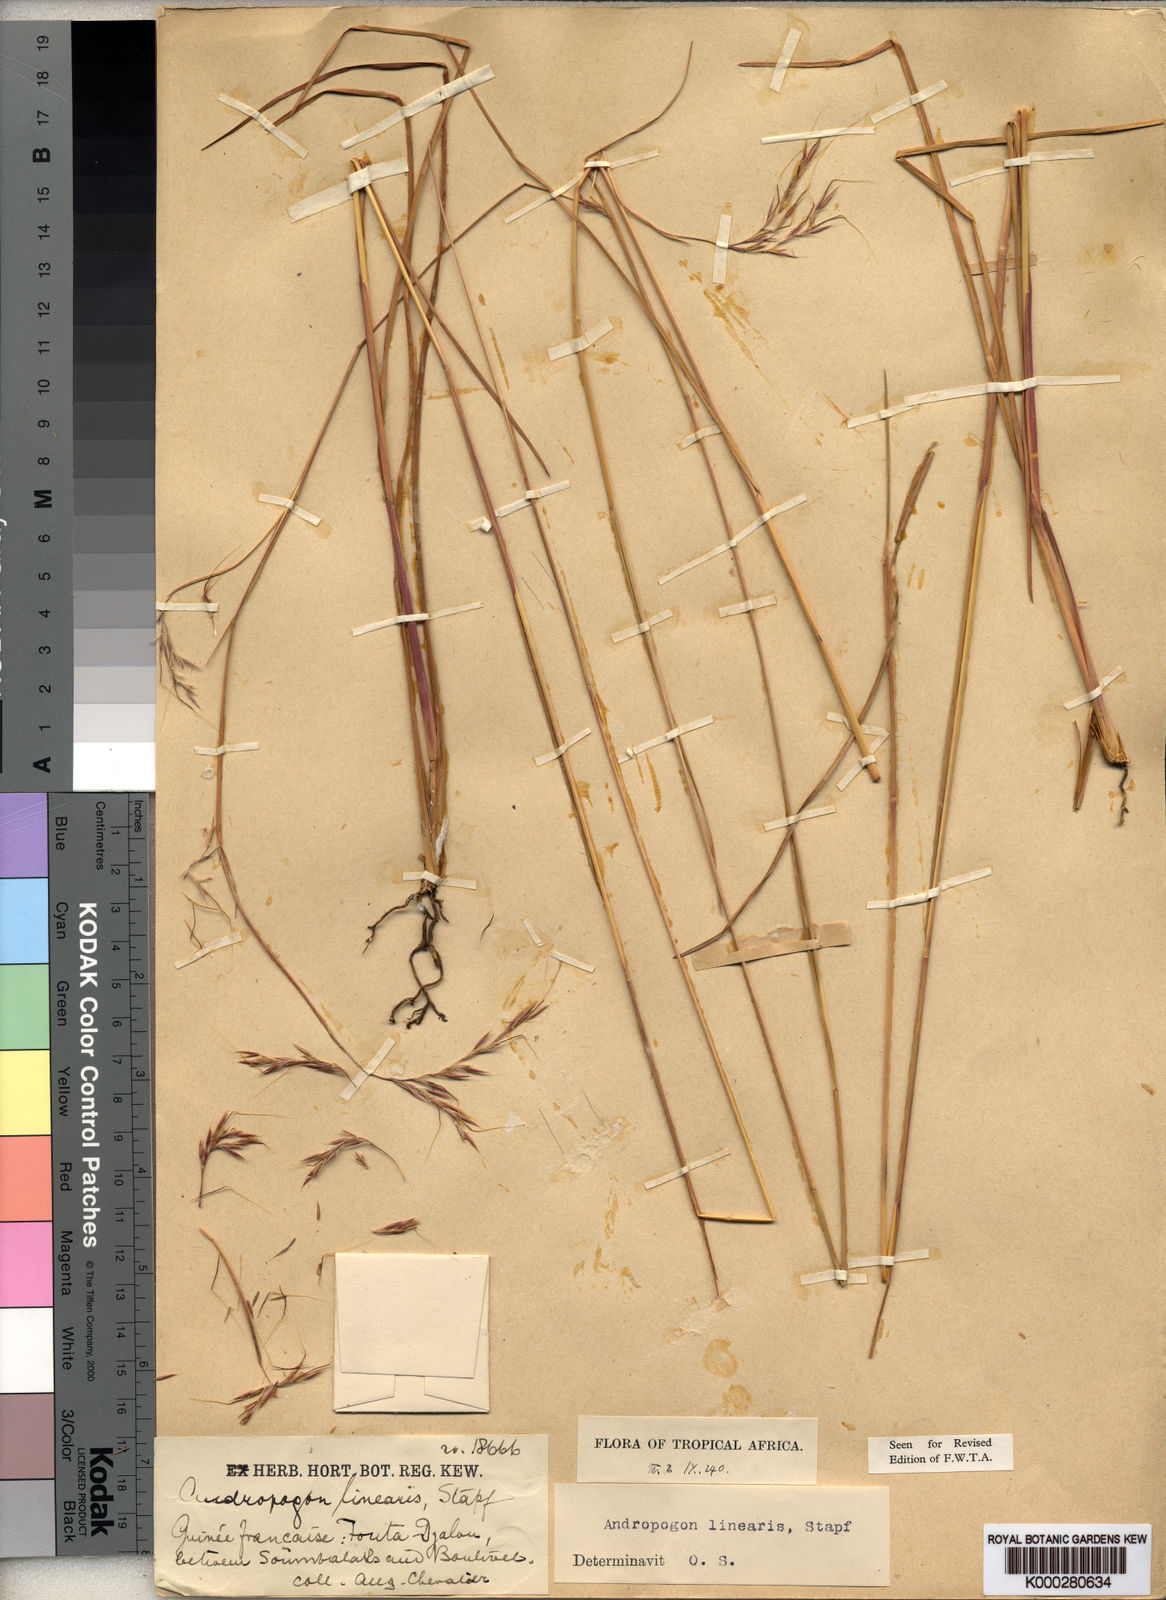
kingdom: Plantae
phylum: Tracheophyta
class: Liliopsida
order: Poales
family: Poaceae
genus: Andropogon
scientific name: Andropogon africanus
